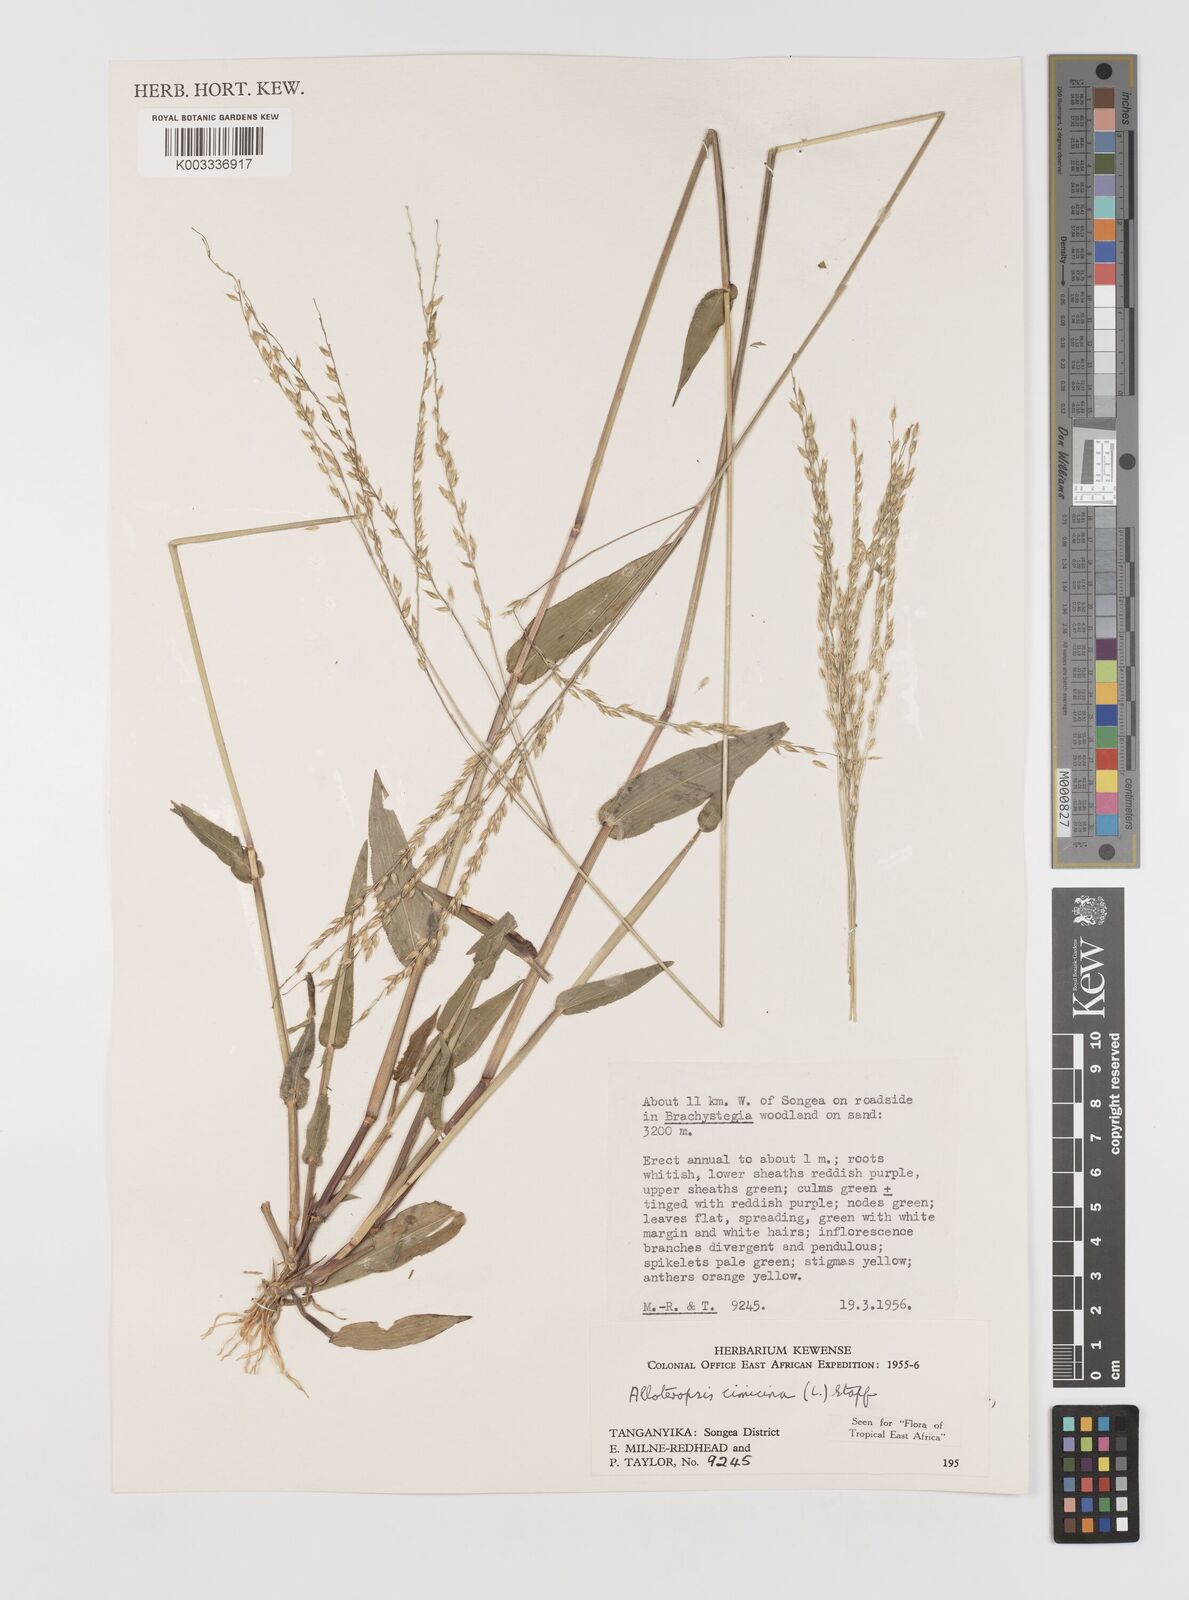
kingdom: Plantae
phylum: Tracheophyta
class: Liliopsida
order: Poales
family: Poaceae
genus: Alloteropsis
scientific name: Alloteropsis cimicina
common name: Summergrass
